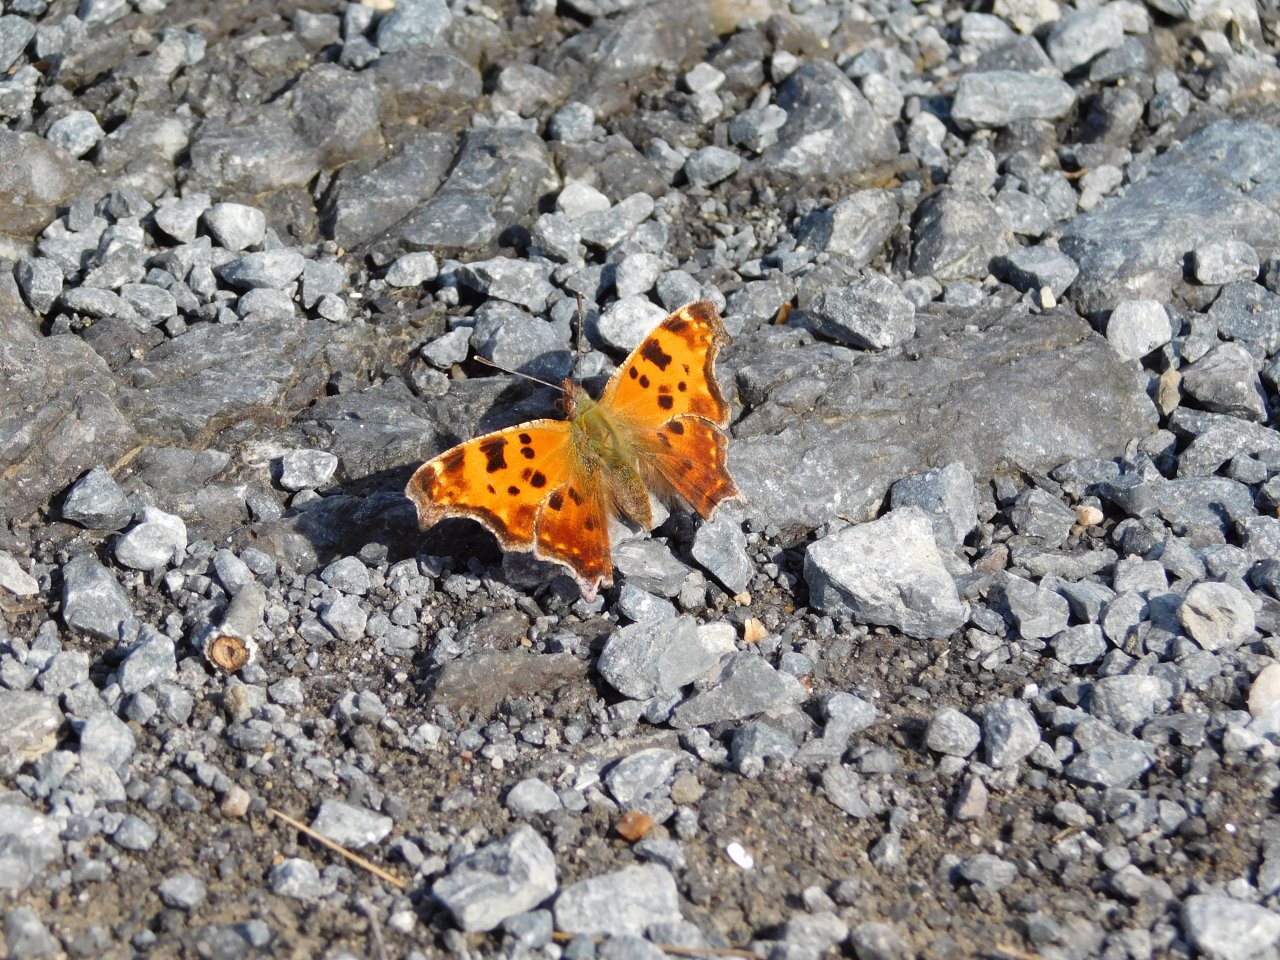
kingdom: Animalia
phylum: Arthropoda
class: Insecta
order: Lepidoptera
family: Nymphalidae
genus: Polygonia
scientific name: Polygonia comma
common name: Eastern Comma
